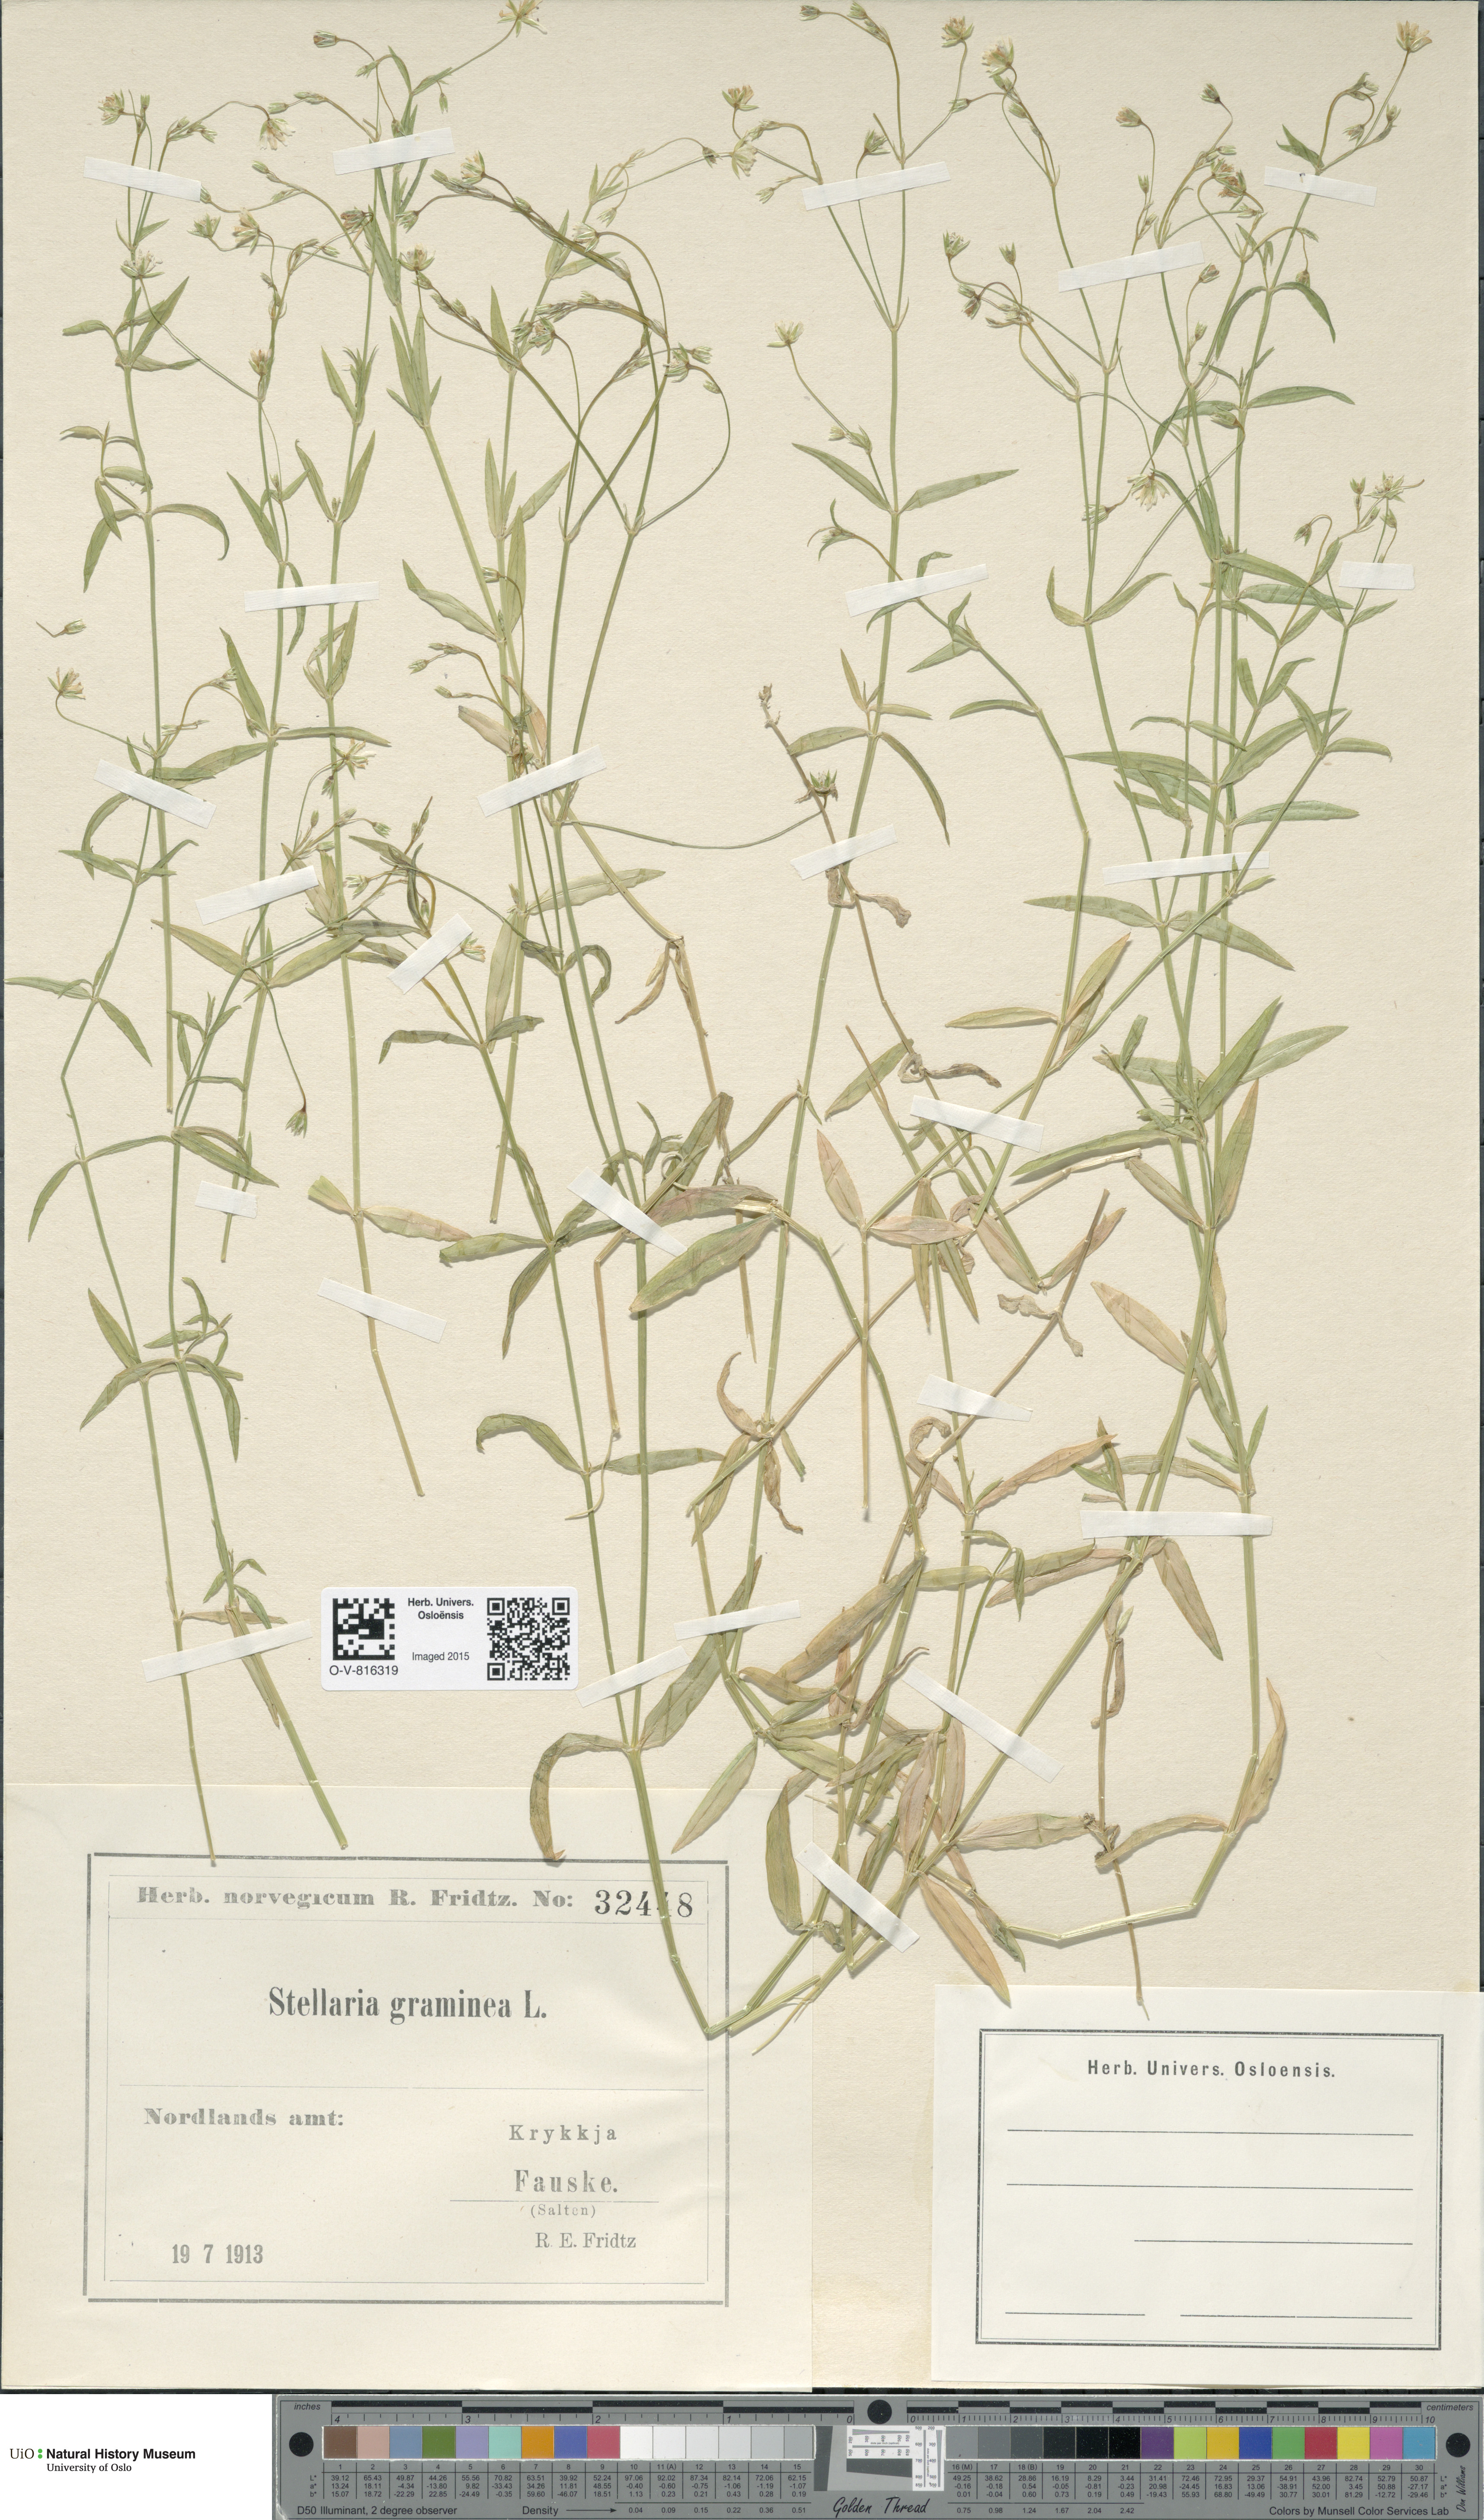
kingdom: Plantae
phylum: Tracheophyta
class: Magnoliopsida
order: Caryophyllales
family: Caryophyllaceae
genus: Stellaria
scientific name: Stellaria graminea
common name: Grass-like starwort
